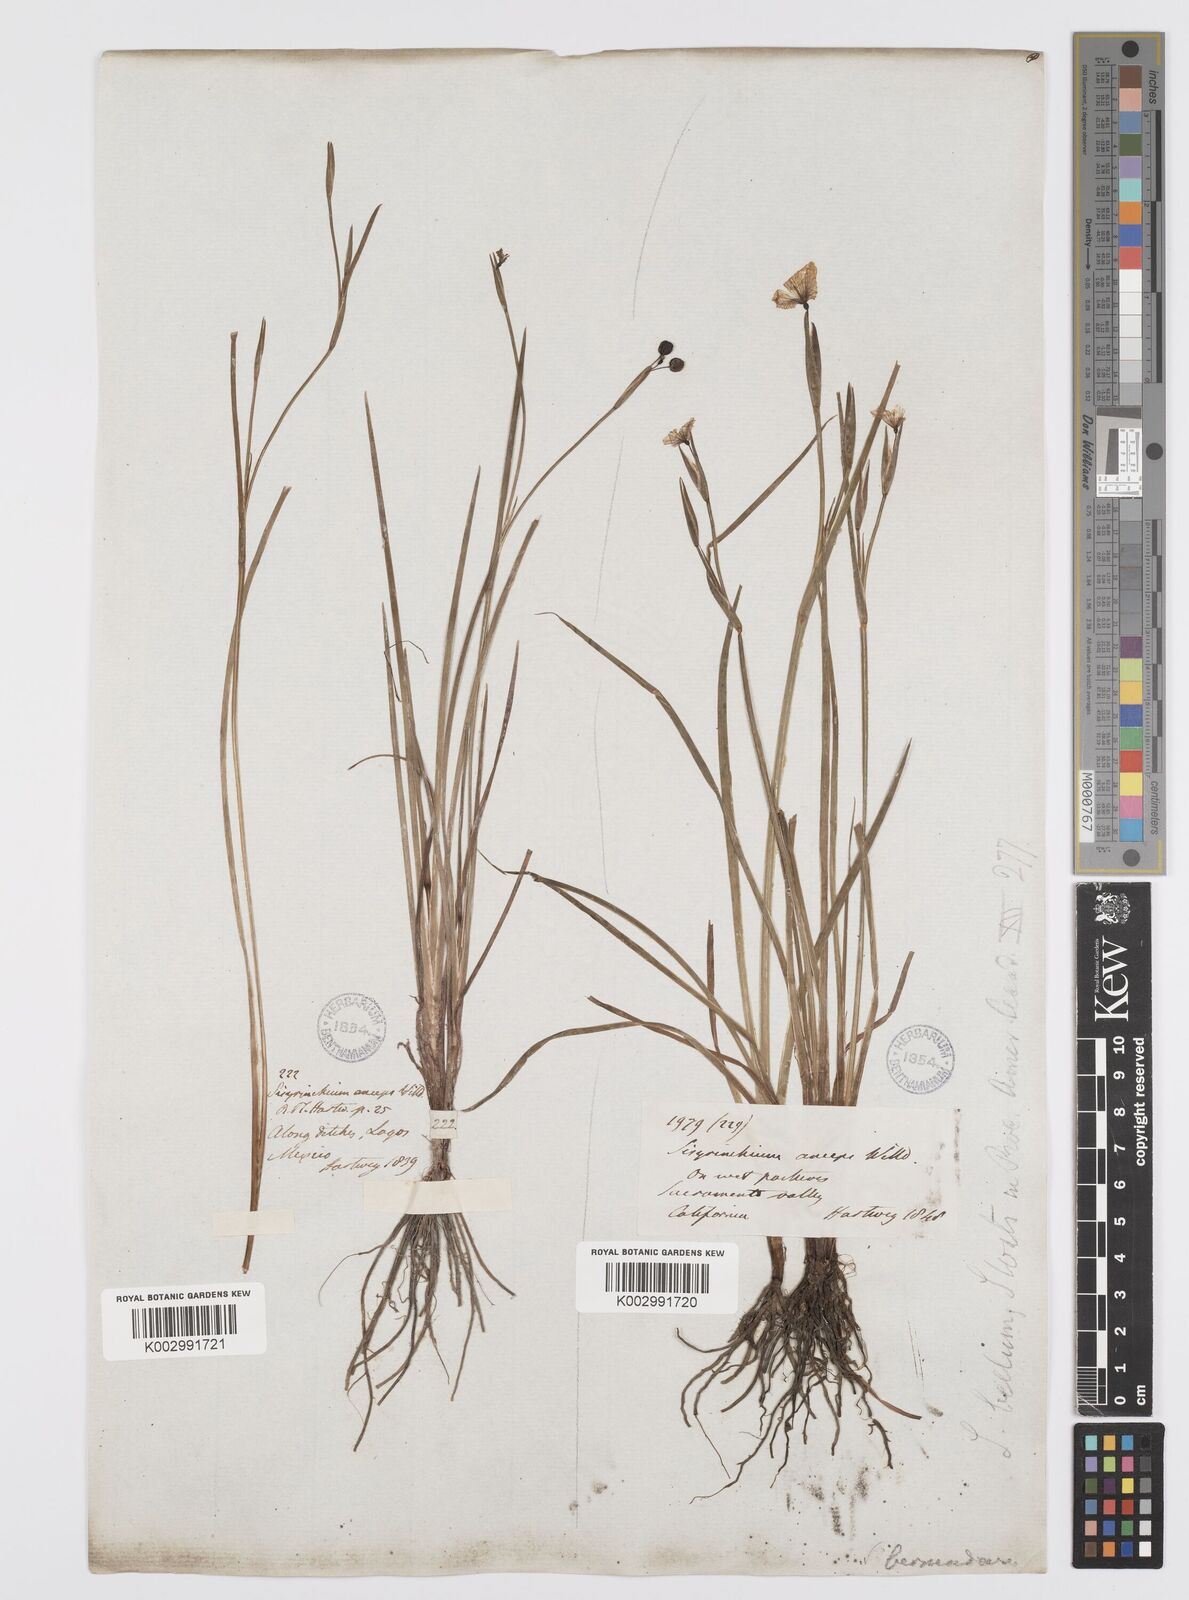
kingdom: Plantae
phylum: Tracheophyta
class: Liliopsida
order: Asparagales
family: Iridaceae
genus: Sisyrinchium
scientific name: Sisyrinchium bellum
